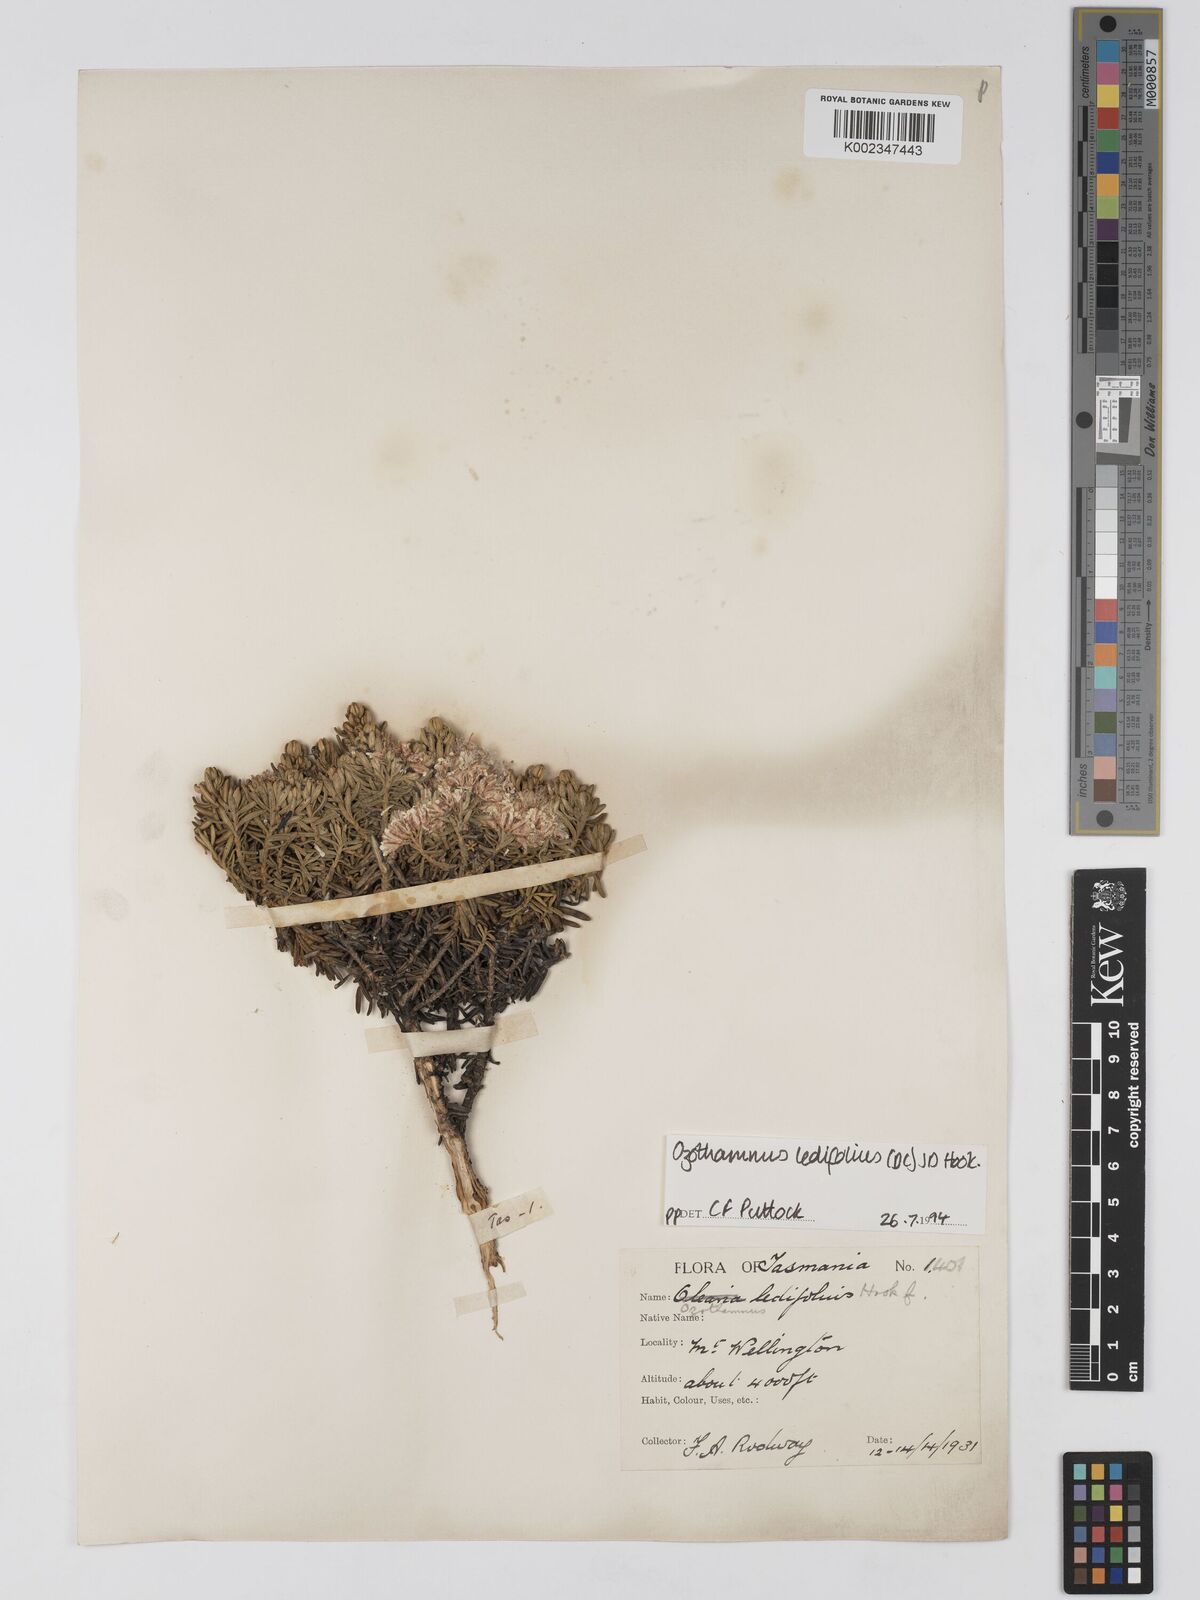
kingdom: Plantae
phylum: Tracheophyta
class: Magnoliopsida
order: Asterales
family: Asteraceae
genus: Ozothamnus
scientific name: Ozothamnus ledifolius
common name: Kerosene-weed
